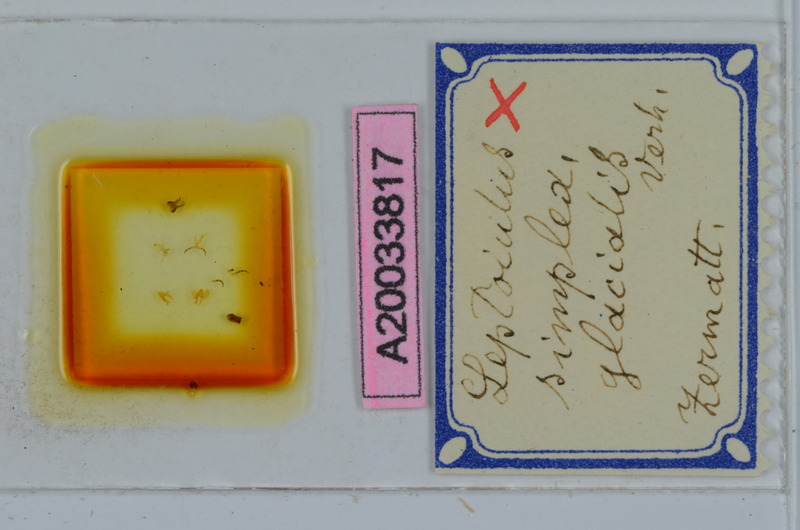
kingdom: Animalia
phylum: Arthropoda
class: Diplopoda
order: Julida
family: Julidae
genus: Leptoiulus
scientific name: Leptoiulus simplex
